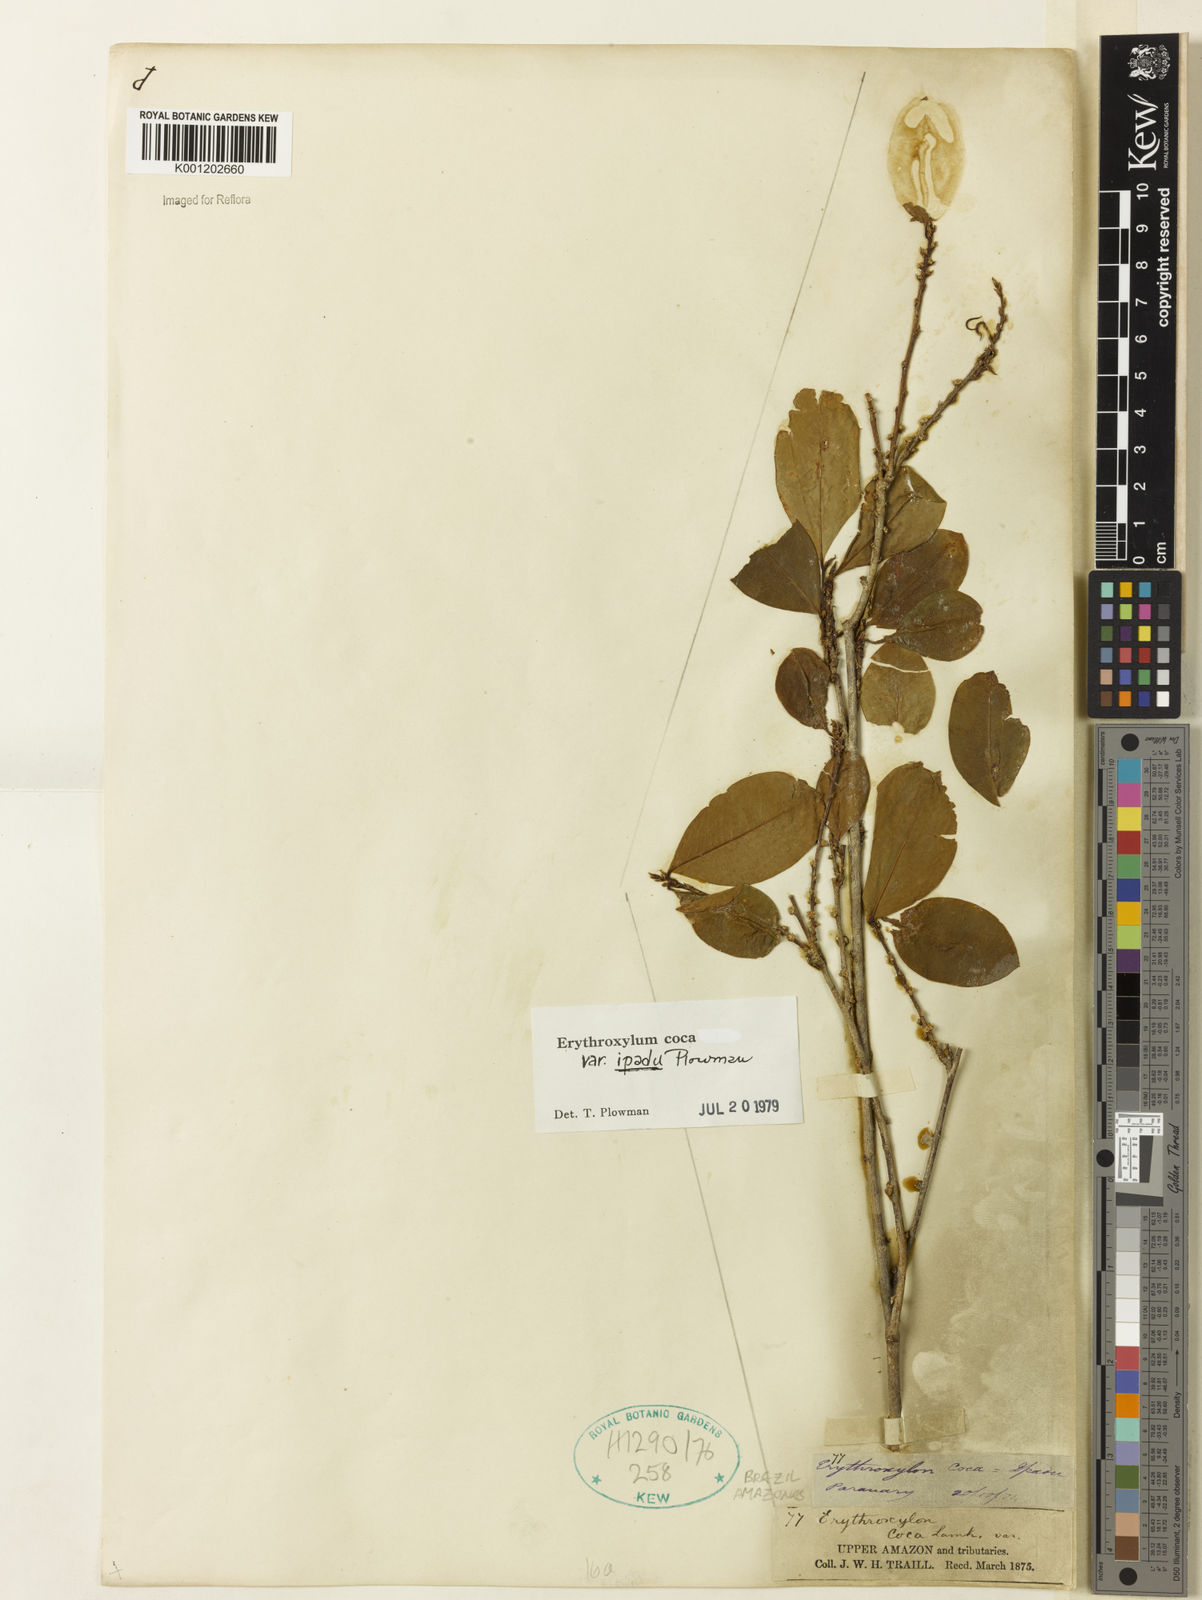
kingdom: Plantae
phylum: Tracheophyta
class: Magnoliopsida
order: Malpighiales
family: Erythroxylaceae
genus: Erythroxylum
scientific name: Erythroxylum coca
